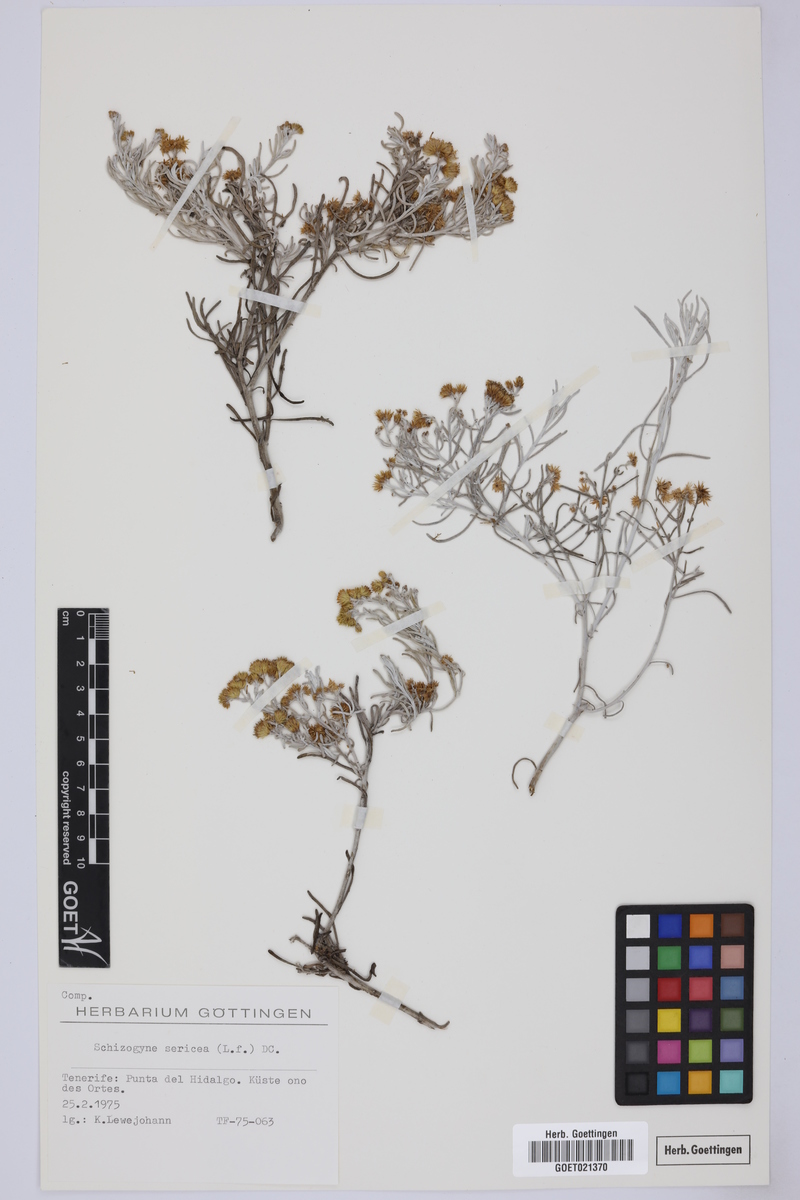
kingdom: Plantae
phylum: Tracheophyta
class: Magnoliopsida
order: Asterales
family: Asteraceae
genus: Schizogyne
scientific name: Schizogyne sericea
